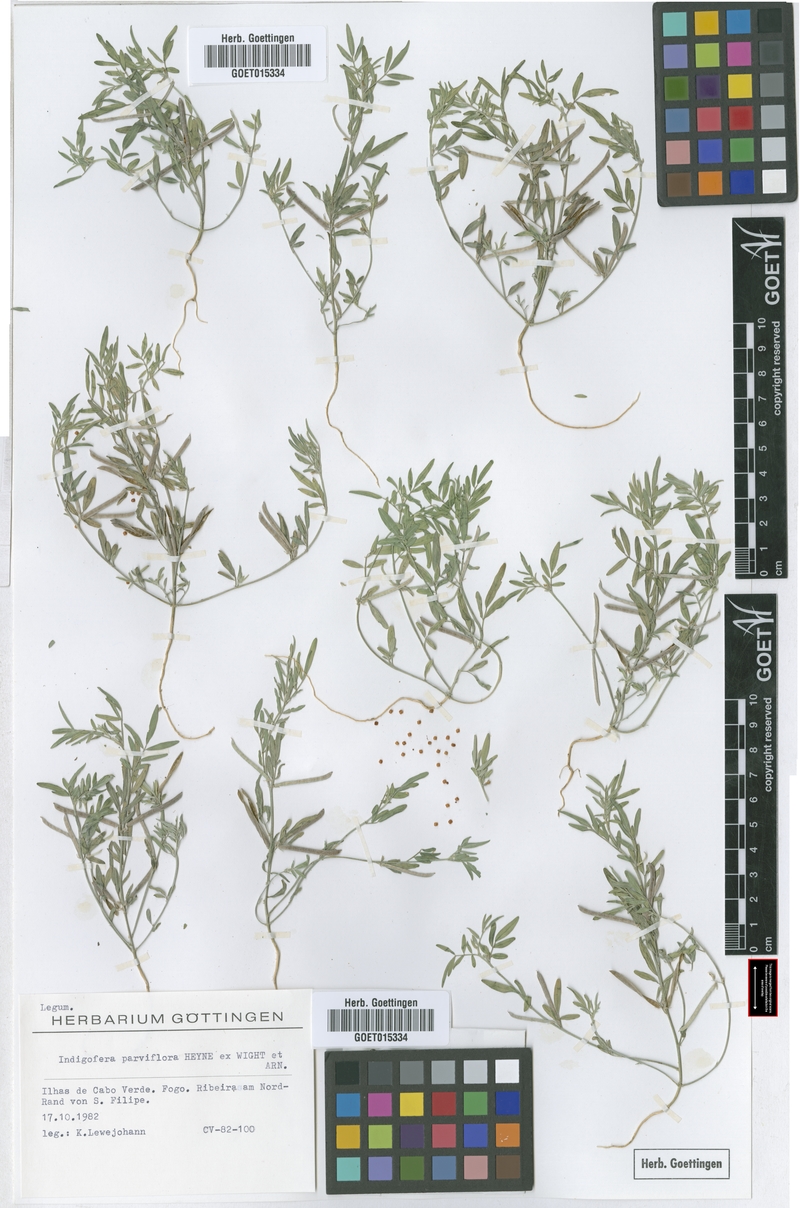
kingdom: Plantae
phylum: Tracheophyta
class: Magnoliopsida
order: Fabales
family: Fabaceae
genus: Indigastrum
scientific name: Indigastrum parviflorum
